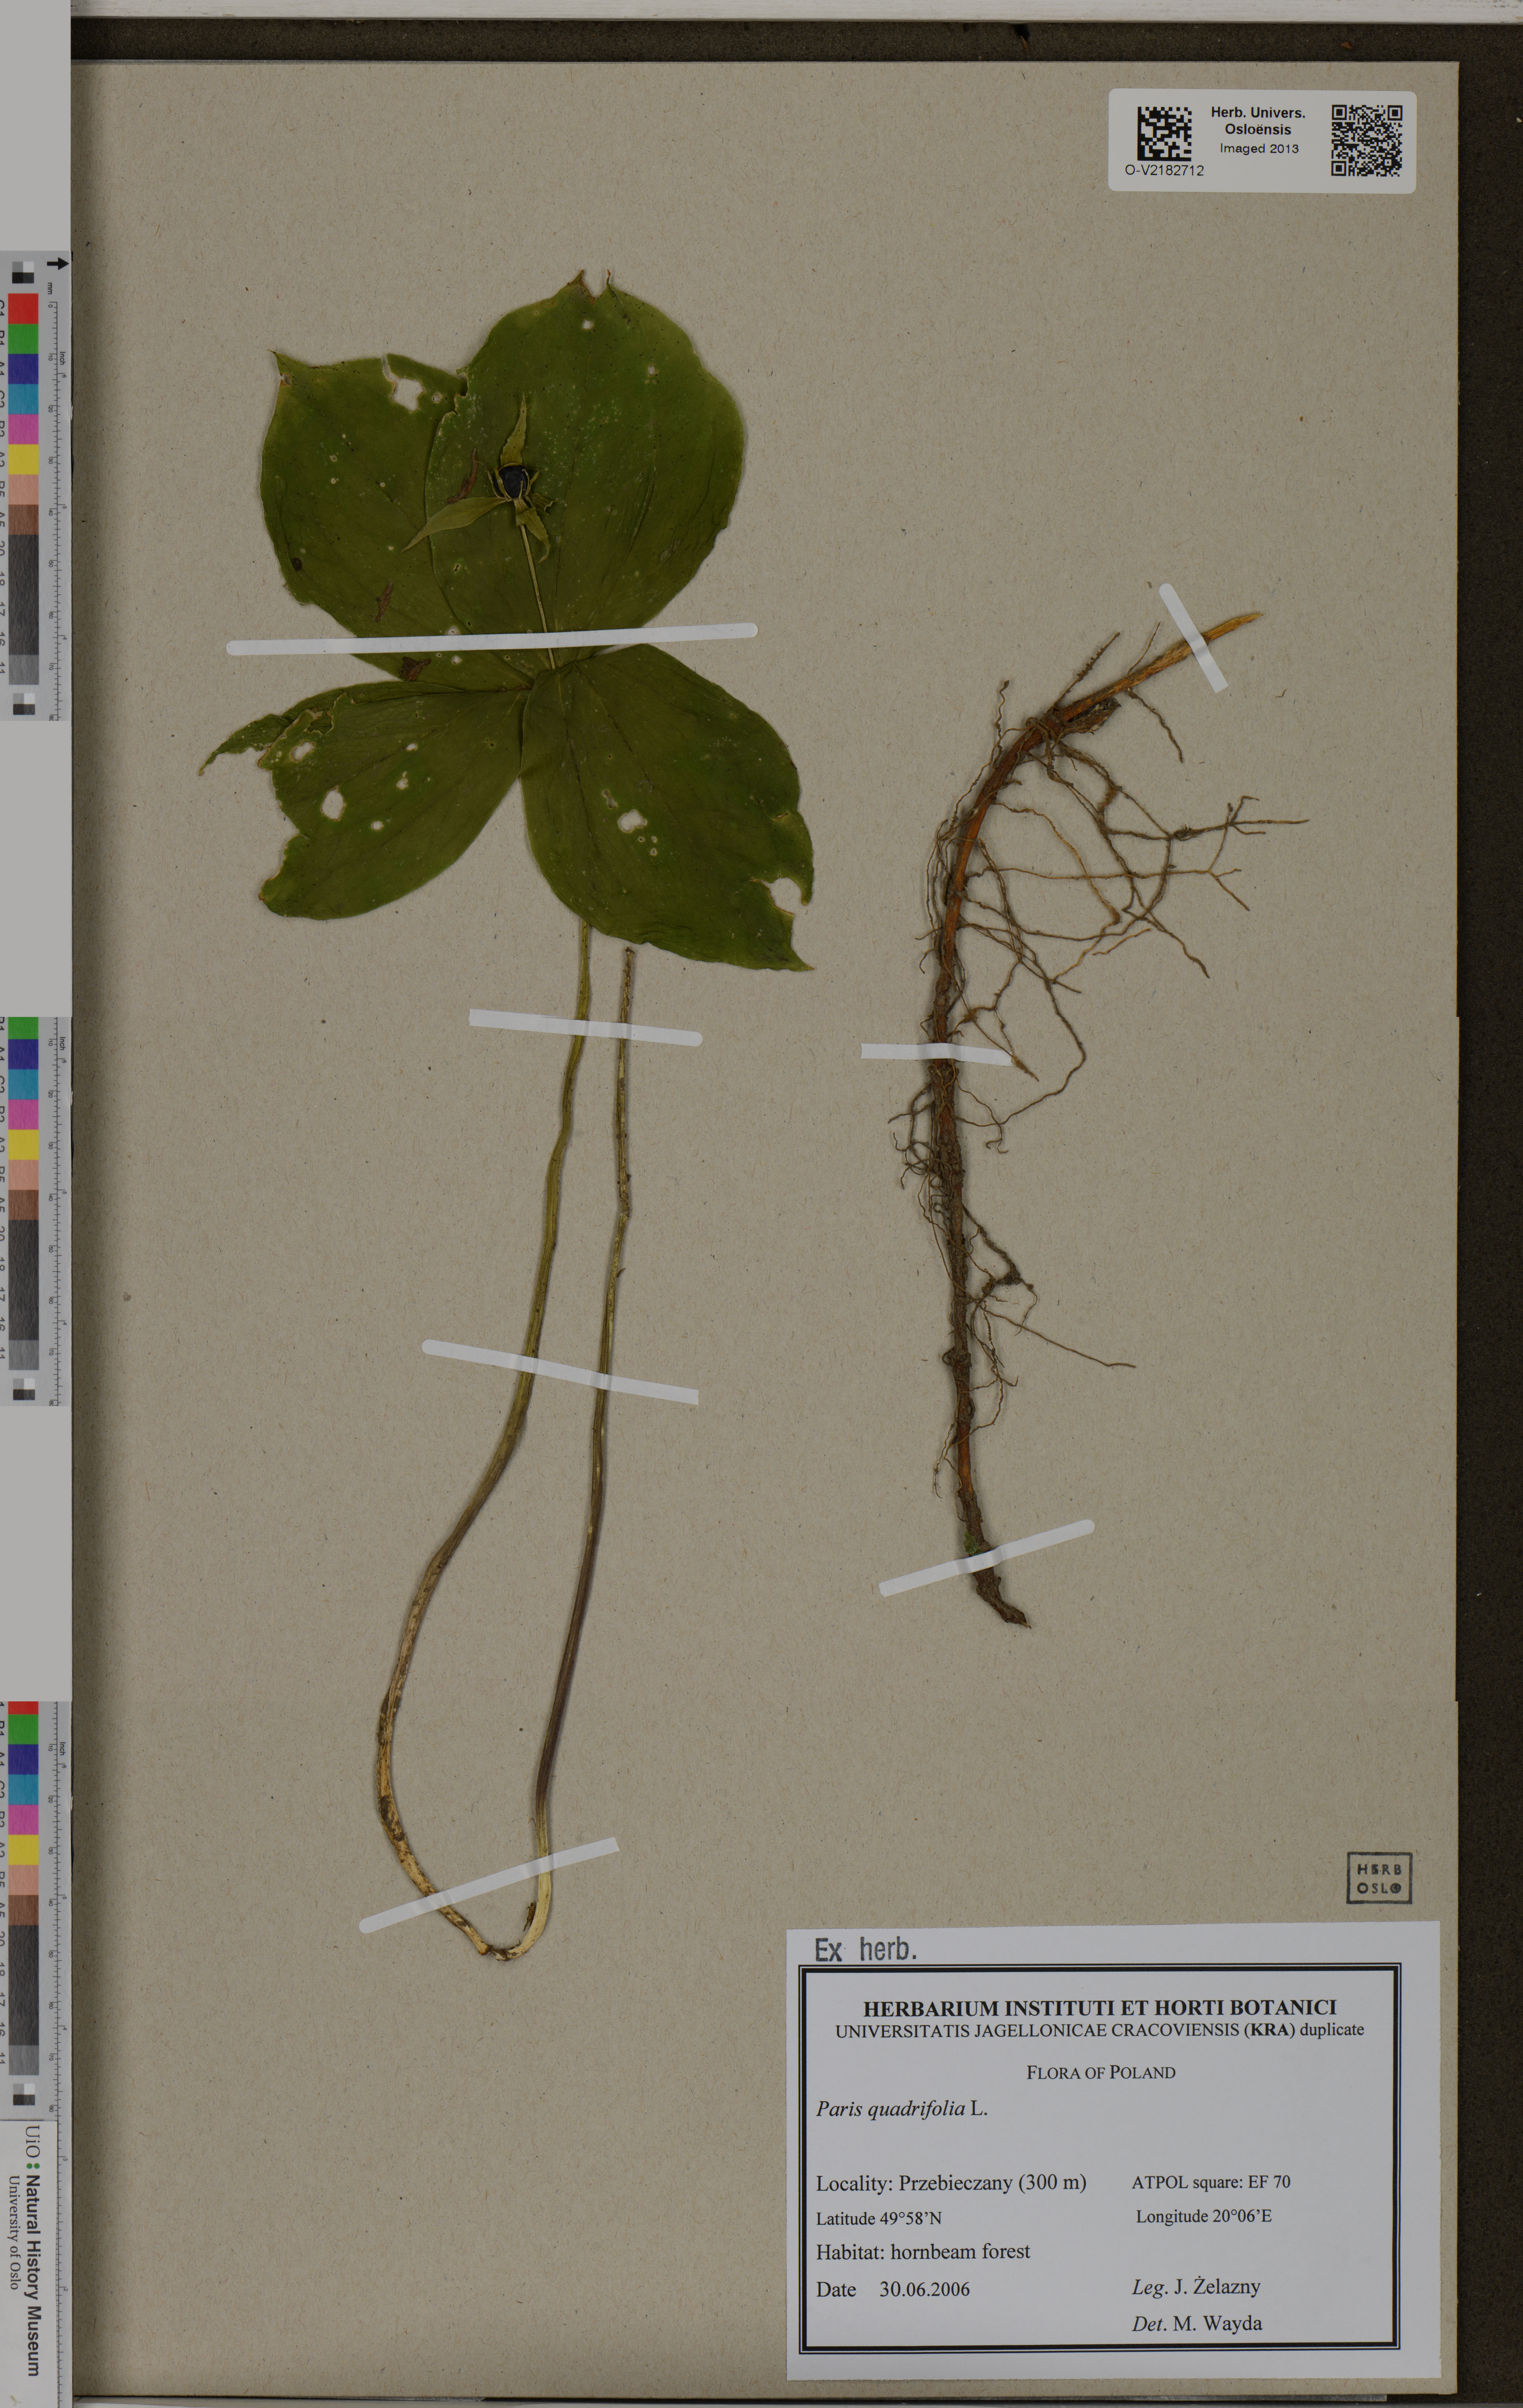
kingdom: Plantae
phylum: Tracheophyta
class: Liliopsida
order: Liliales
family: Melanthiaceae
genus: Paris
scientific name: Paris quadrifolia
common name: Herb-paris
